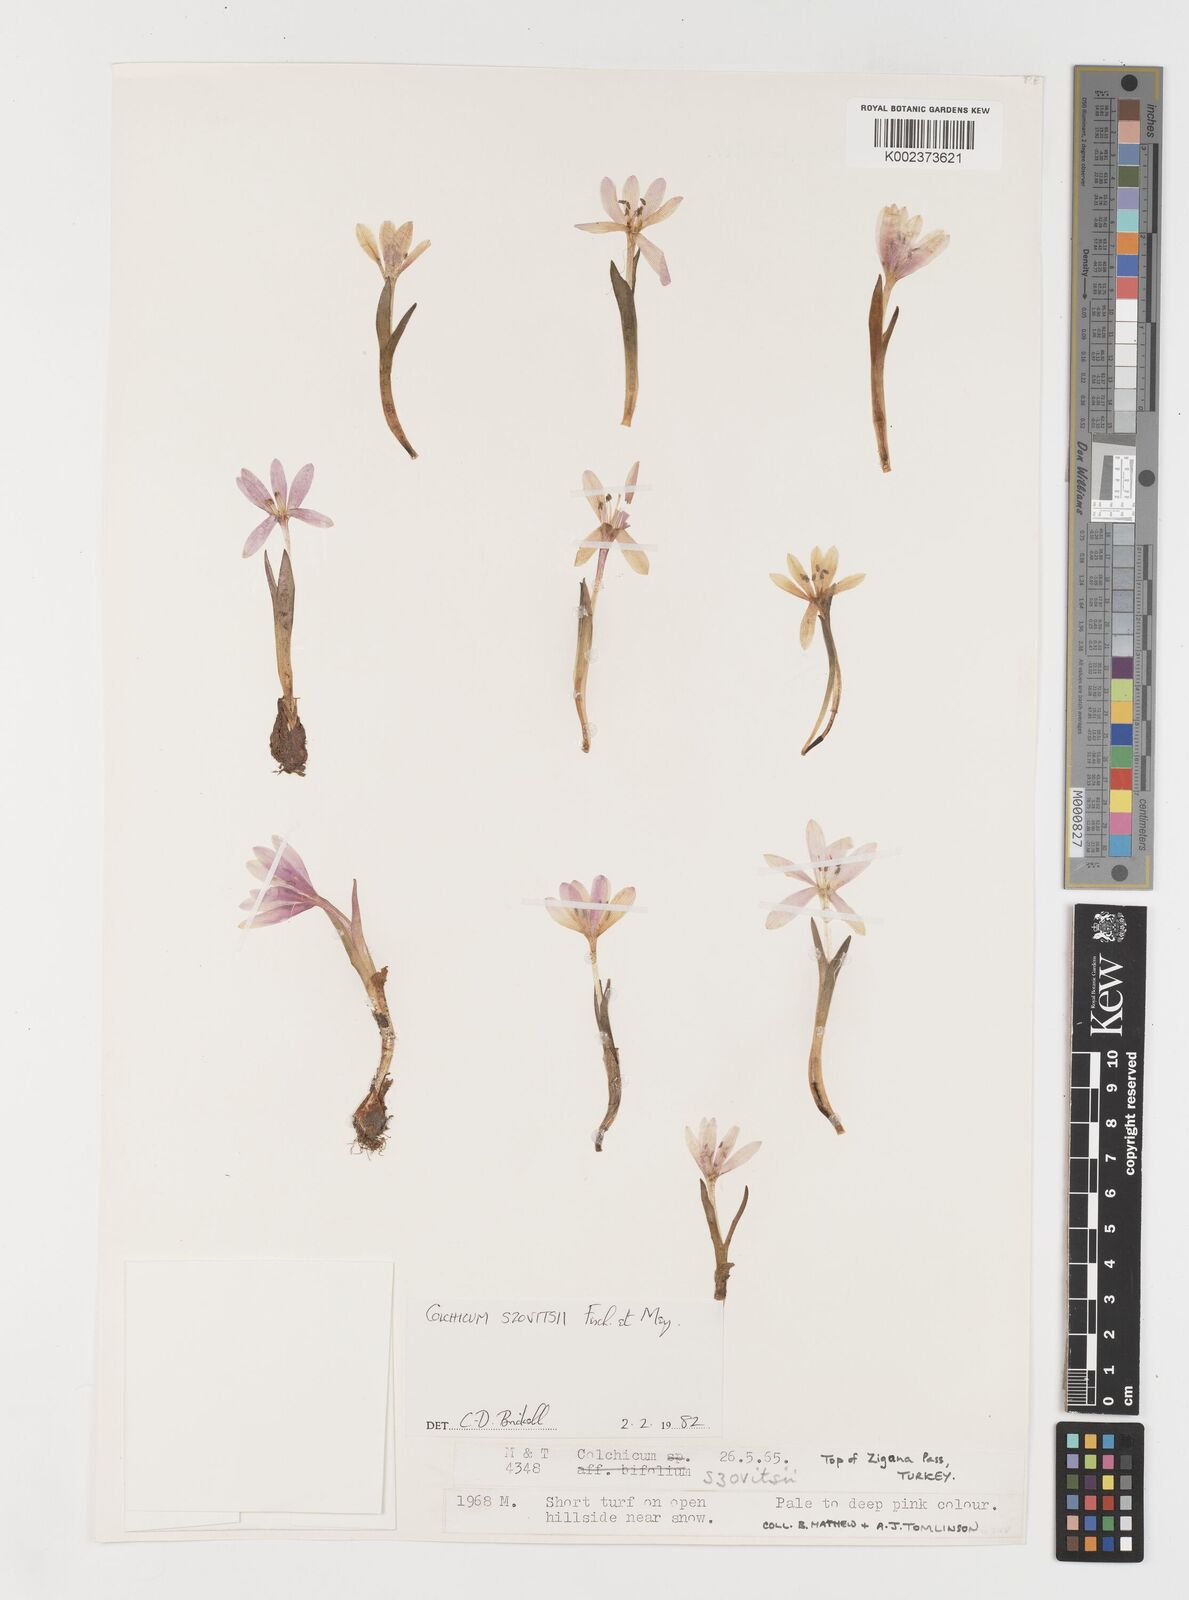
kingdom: Plantae
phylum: Tracheophyta
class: Liliopsida
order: Liliales
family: Colchicaceae
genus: Colchicum
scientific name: Colchicum szovitsii
